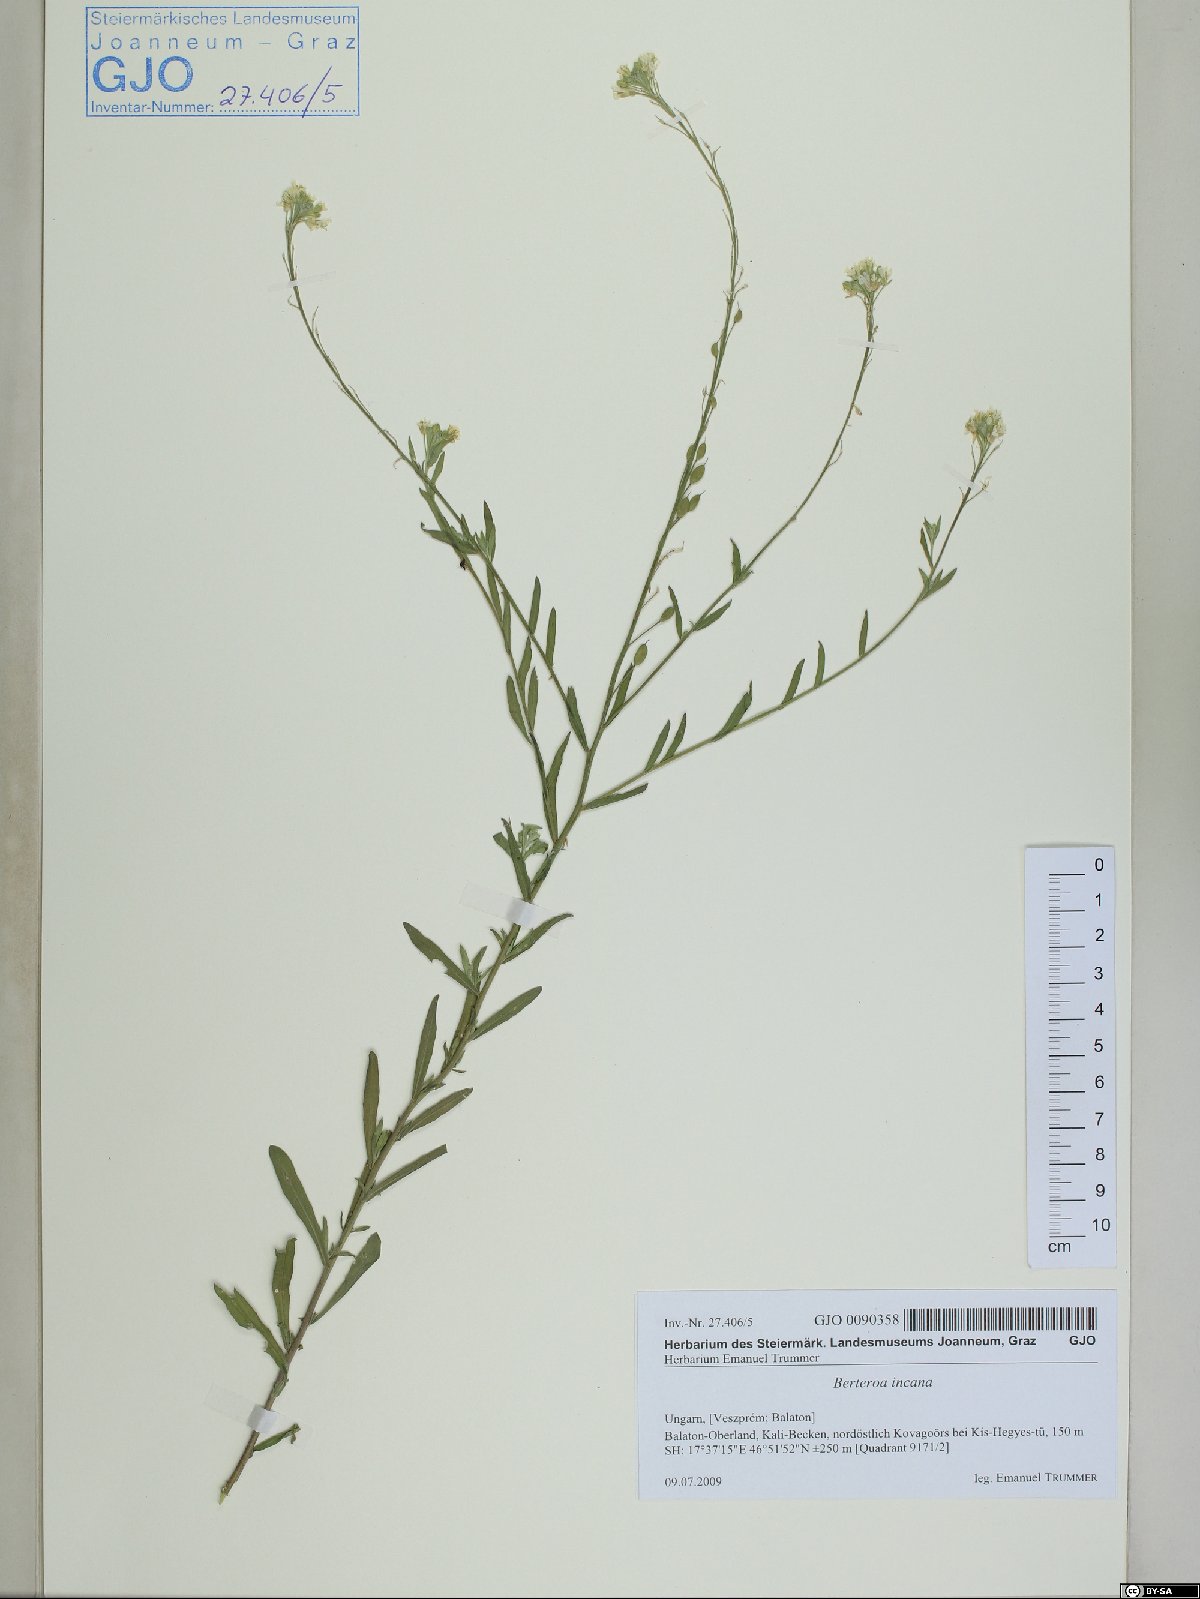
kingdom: Plantae
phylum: Tracheophyta
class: Magnoliopsida
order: Brassicales
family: Brassicaceae
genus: Berteroa
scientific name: Berteroa incana
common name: Hoary alison
